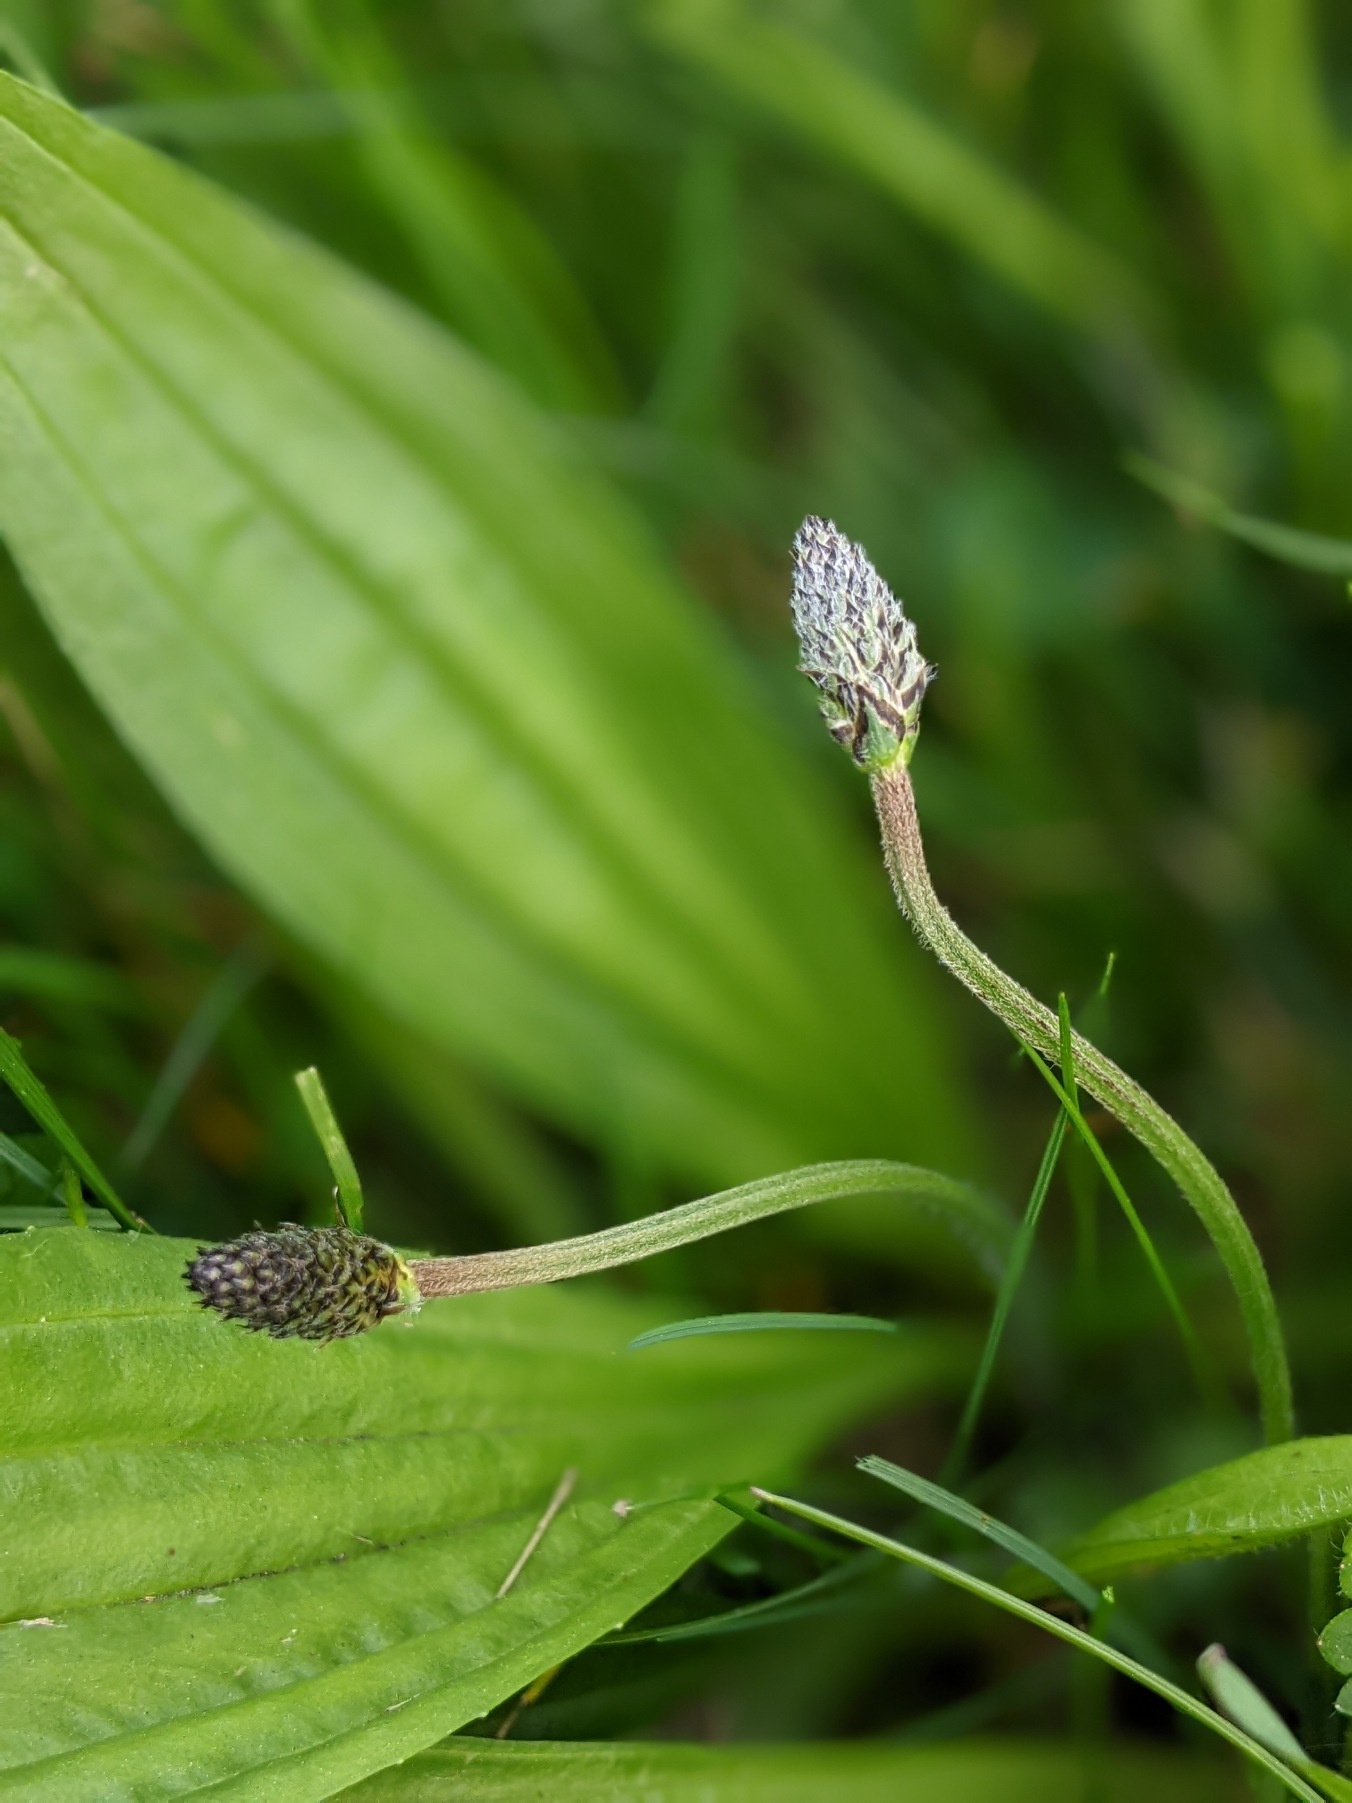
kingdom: Plantae
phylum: Tracheophyta
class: Magnoliopsida
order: Lamiales
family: Plantaginaceae
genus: Plantago
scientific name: Plantago lanceolata
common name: Lancet-vejbred
